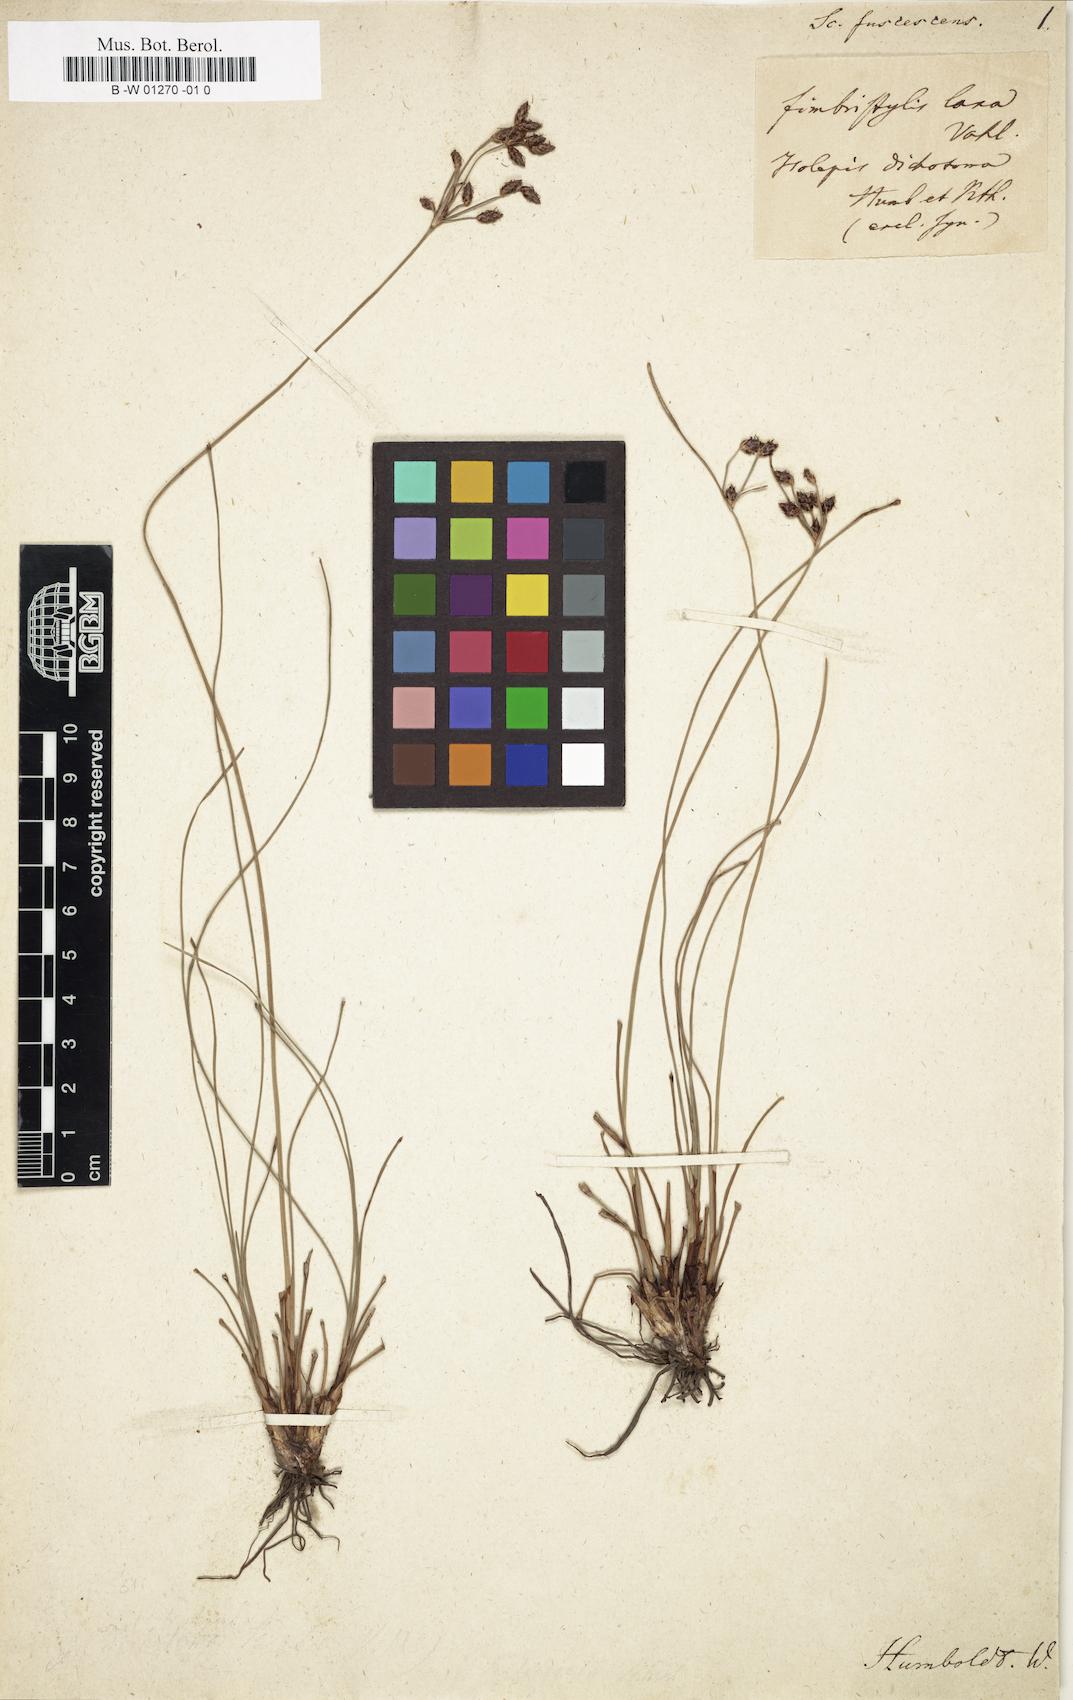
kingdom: Plantae
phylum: Tracheophyta
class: Liliopsida
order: Poales
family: Cyperaceae
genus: Fimbristylis
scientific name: Fimbristylis dichotoma
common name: Forked fimbry
